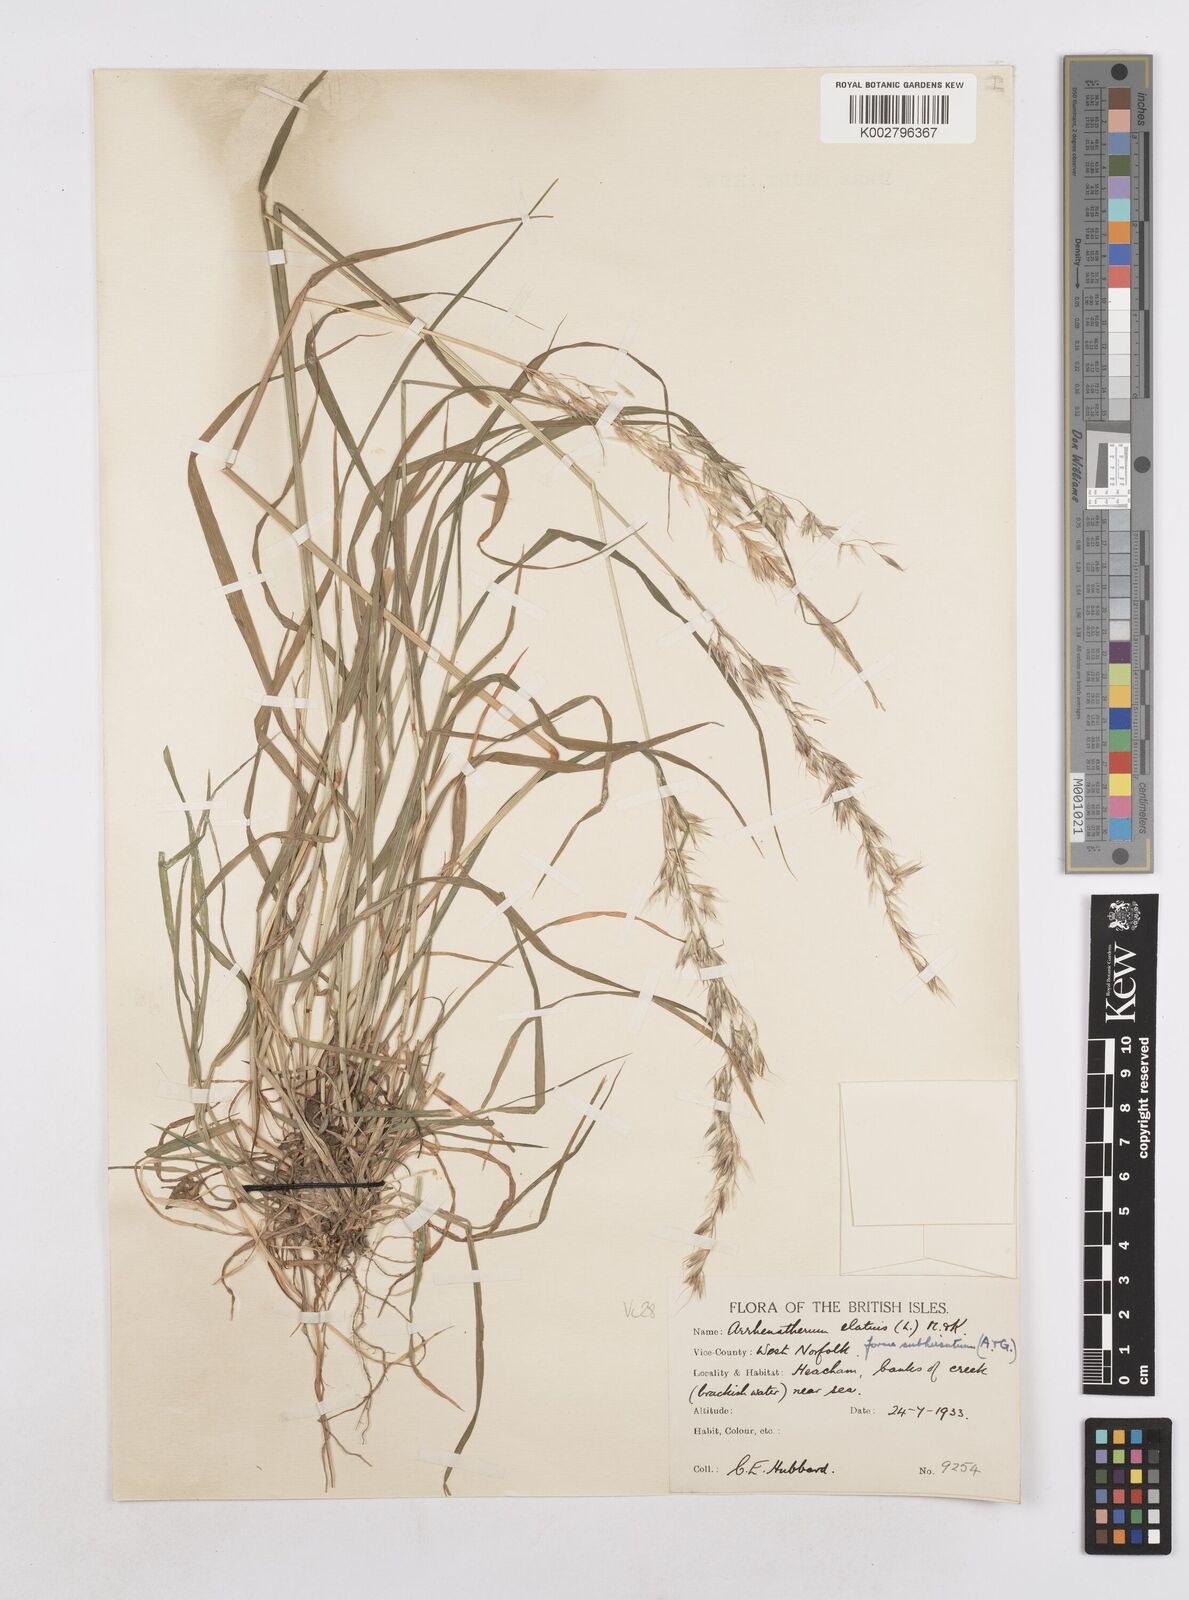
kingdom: Plantae
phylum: Tracheophyta
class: Liliopsida
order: Poales
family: Poaceae
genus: Arrhenatherum
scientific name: Arrhenatherum elatius
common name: Tall oatgrass
